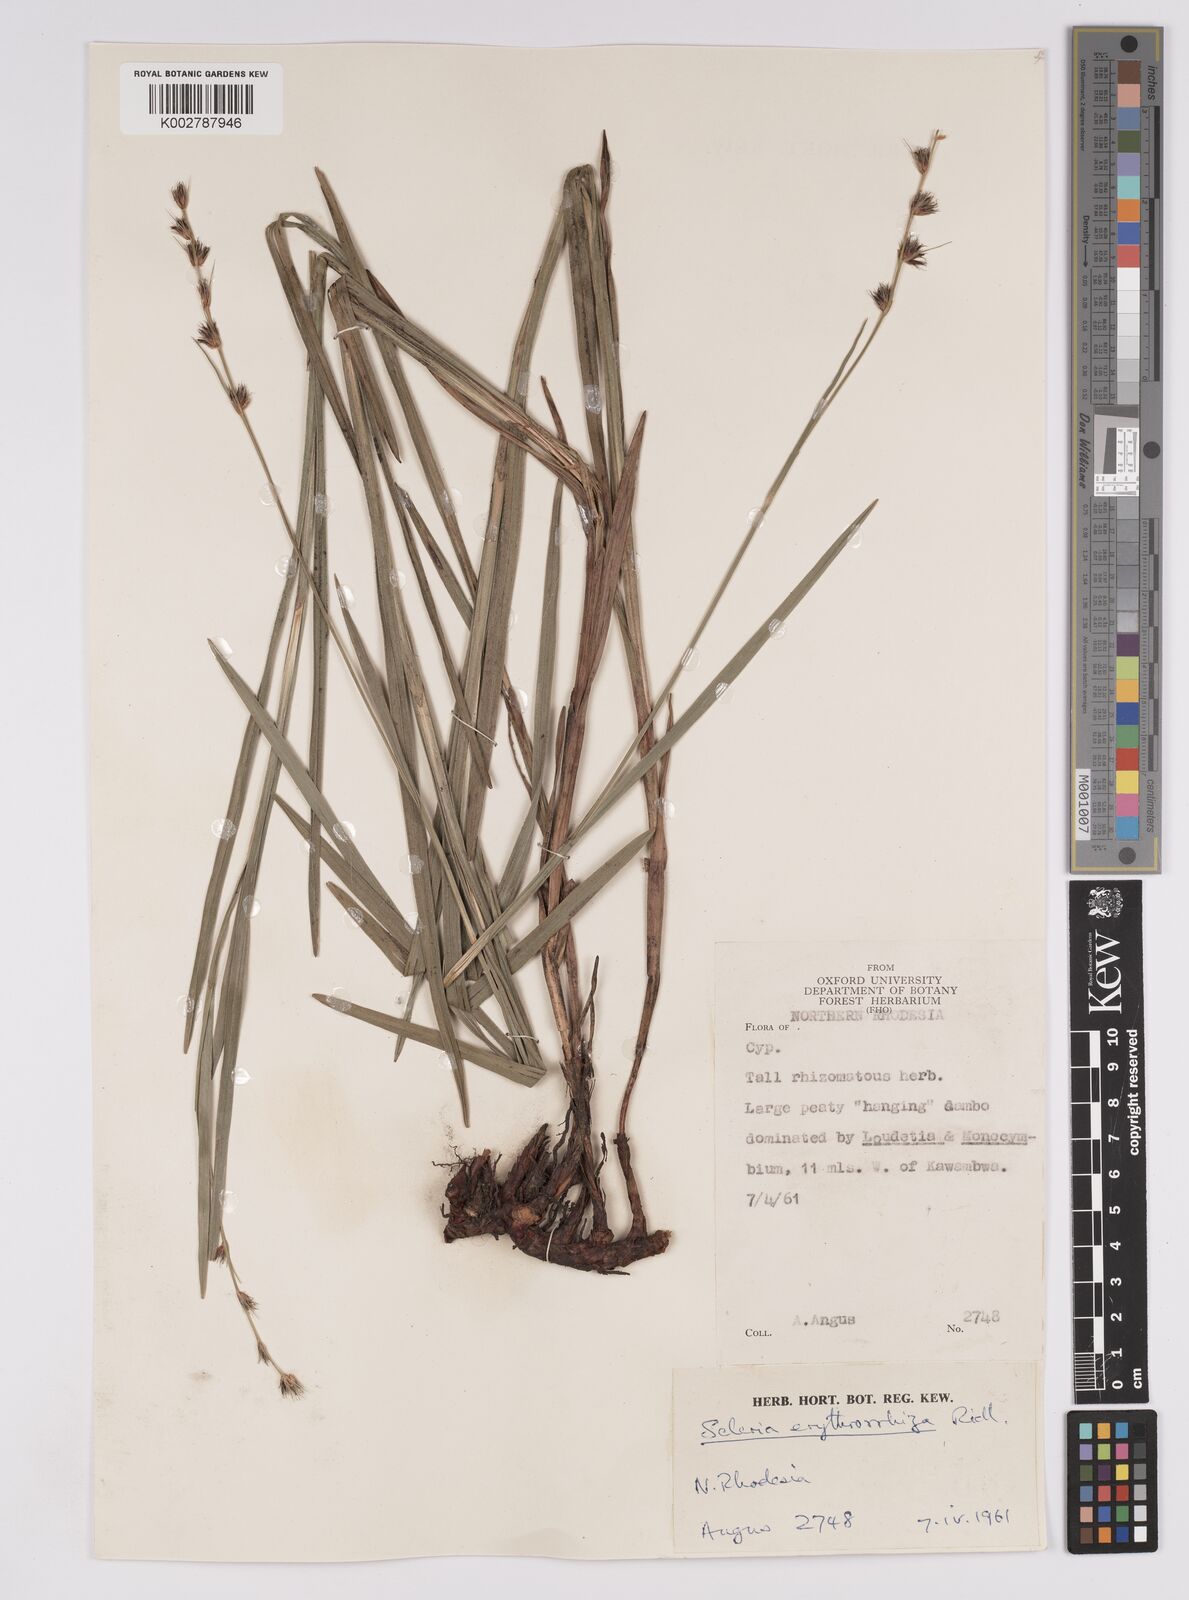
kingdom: Plantae
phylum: Tracheophyta
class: Liliopsida
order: Poales
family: Cyperaceae
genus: Scleria
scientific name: Scleria erythrorrhiza
